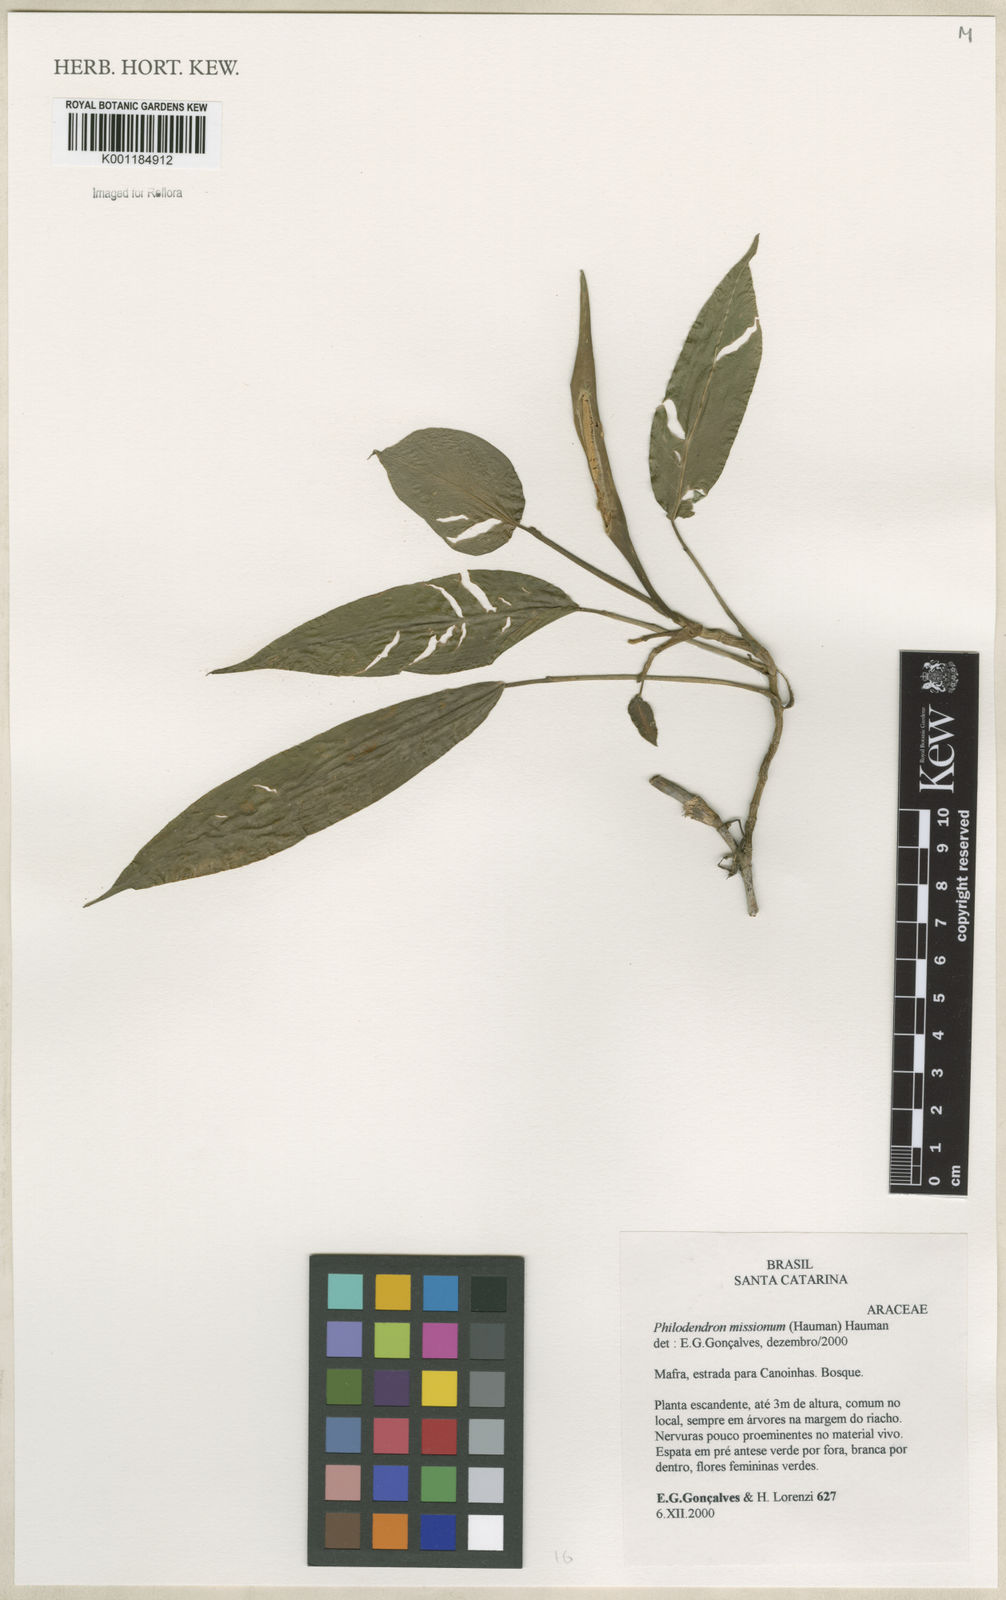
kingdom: Plantae
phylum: Tracheophyta
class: Liliopsida
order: Alismatales
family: Araceae
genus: Philodendron
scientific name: Philodendron missionum
